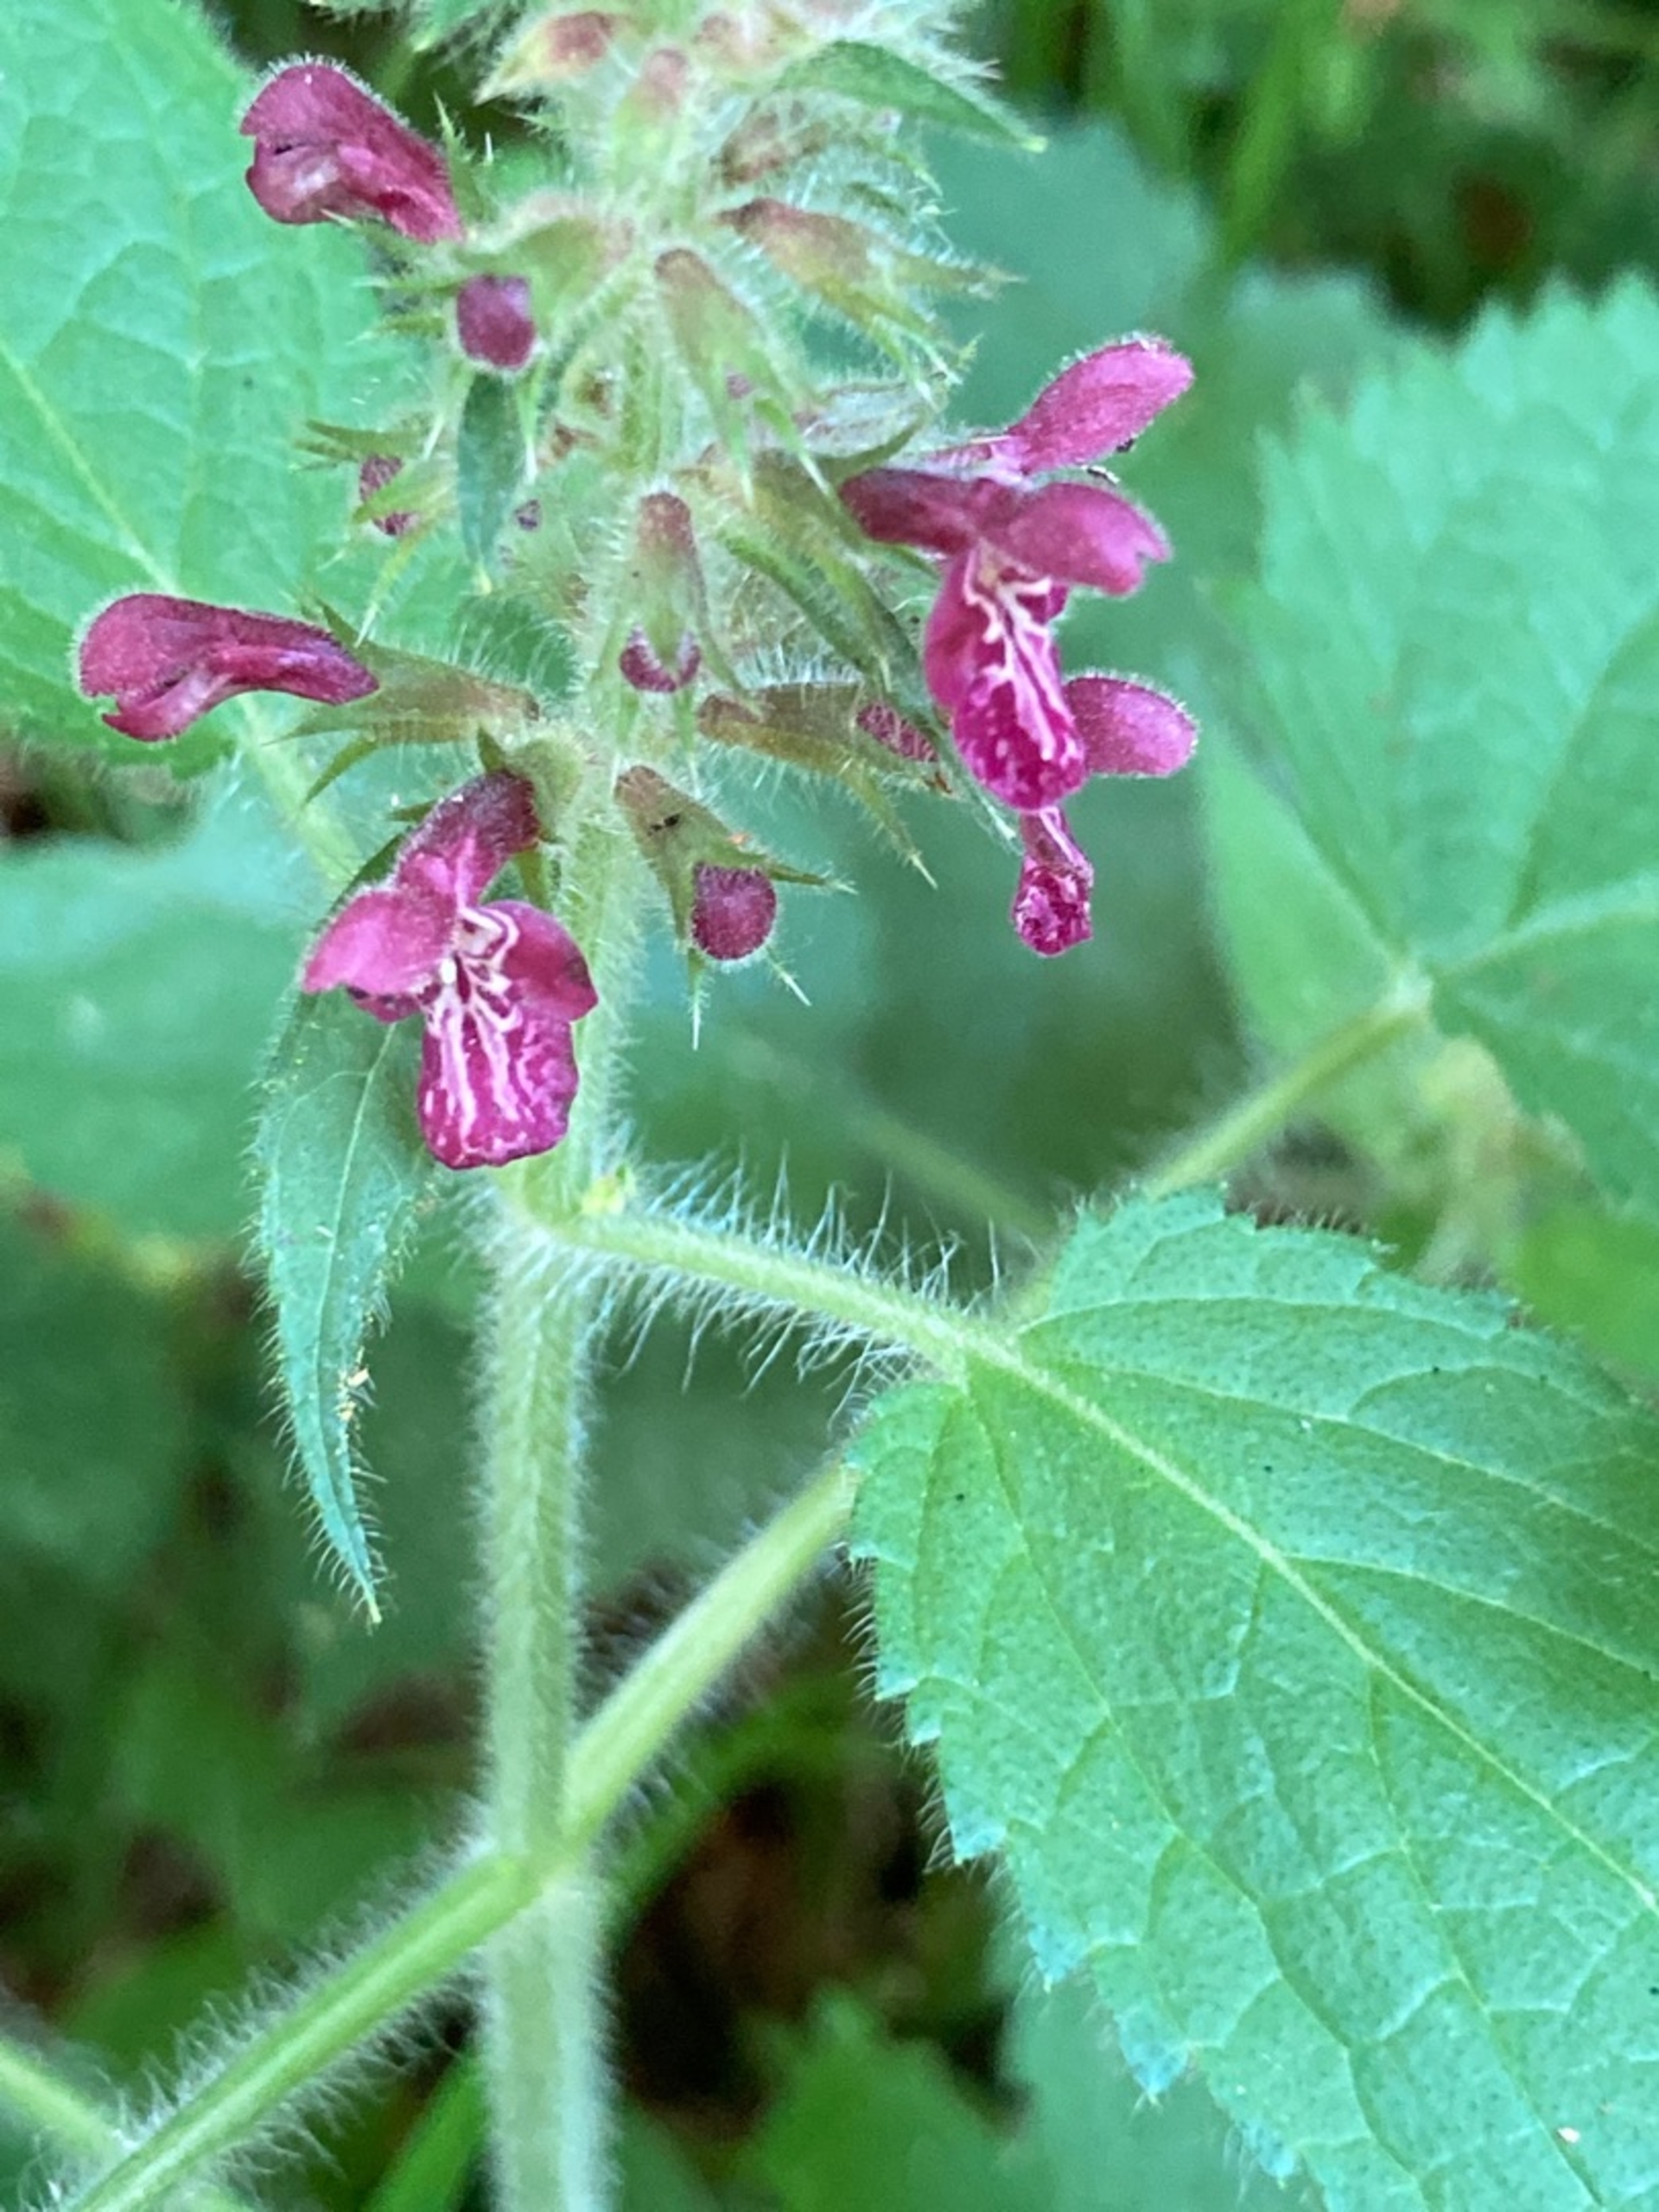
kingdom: Plantae
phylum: Tracheophyta
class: Magnoliopsida
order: Lamiales
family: Lamiaceae
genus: Stachys
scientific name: Stachys sylvatica
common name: Skov-galtetand
